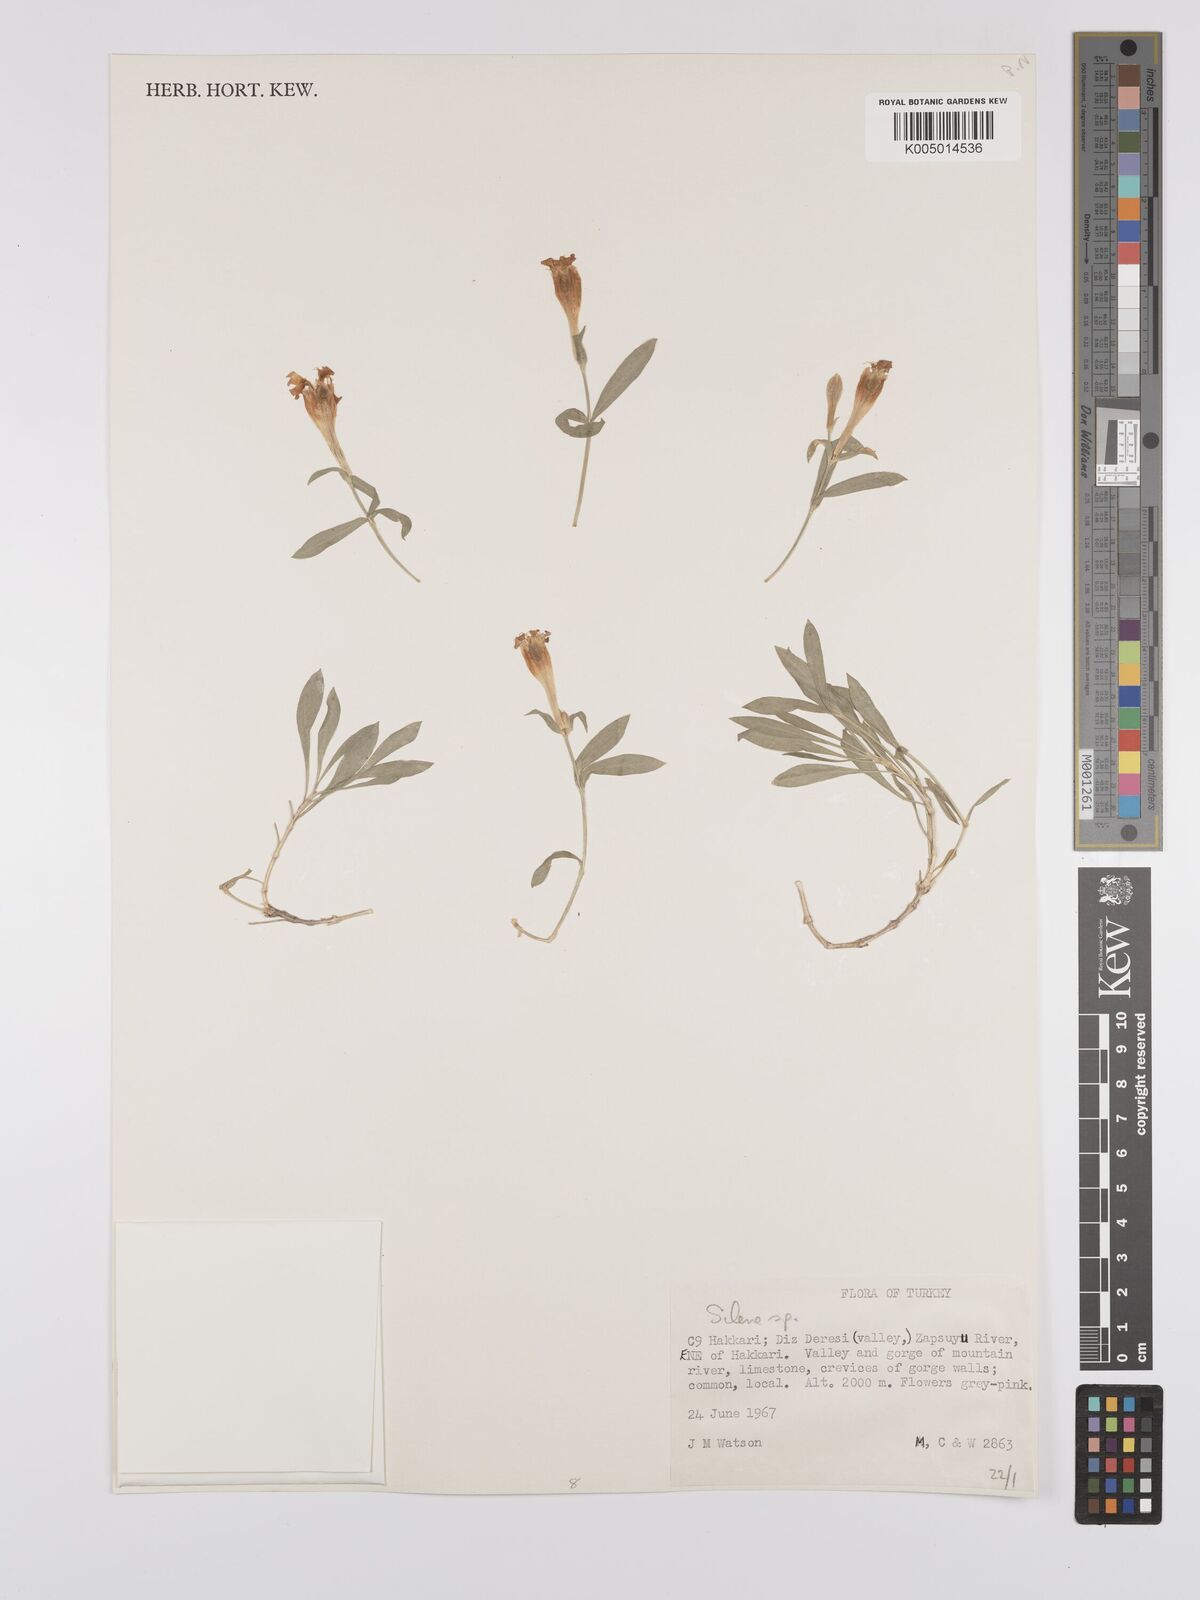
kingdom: Plantae
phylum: Tracheophyta
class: Magnoliopsida
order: Caryophyllales
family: Caryophyllaceae
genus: Silene
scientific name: Silene
